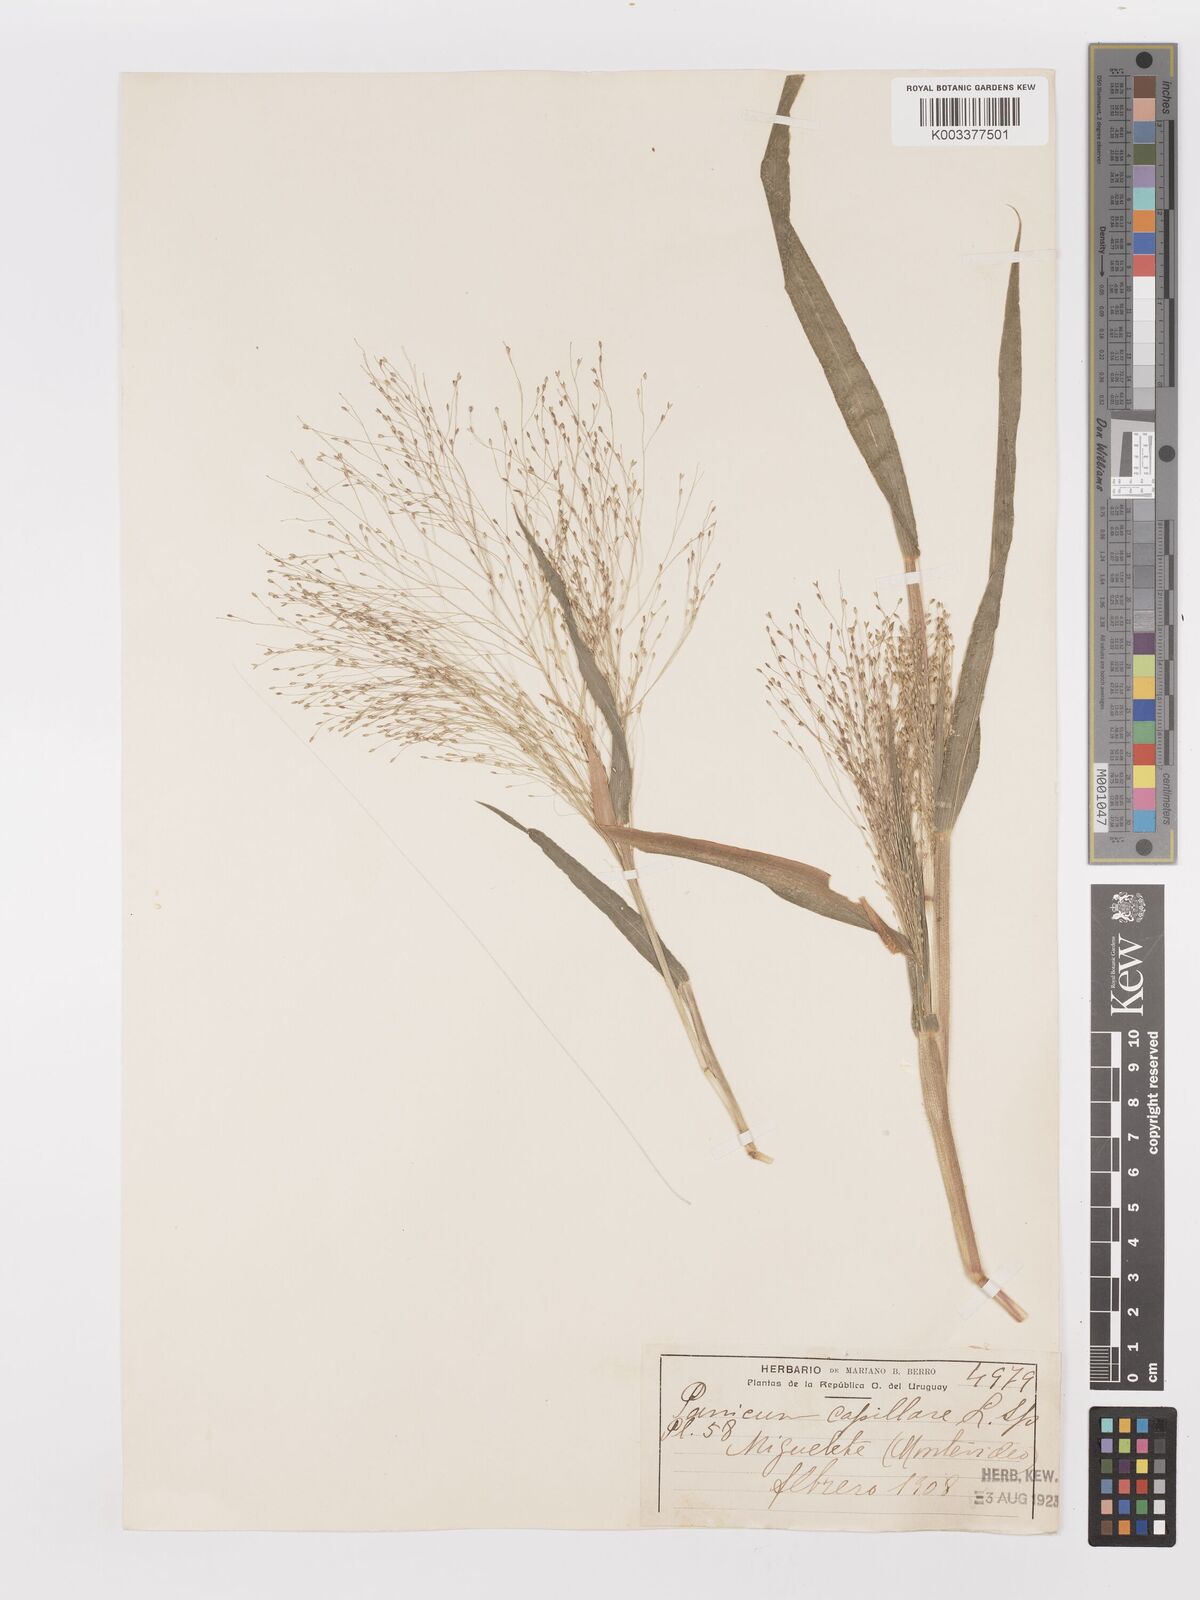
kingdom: Plantae
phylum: Tracheophyta
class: Liliopsida
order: Poales
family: Poaceae
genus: Panicum
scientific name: Panicum capillare
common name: Witch-grass
